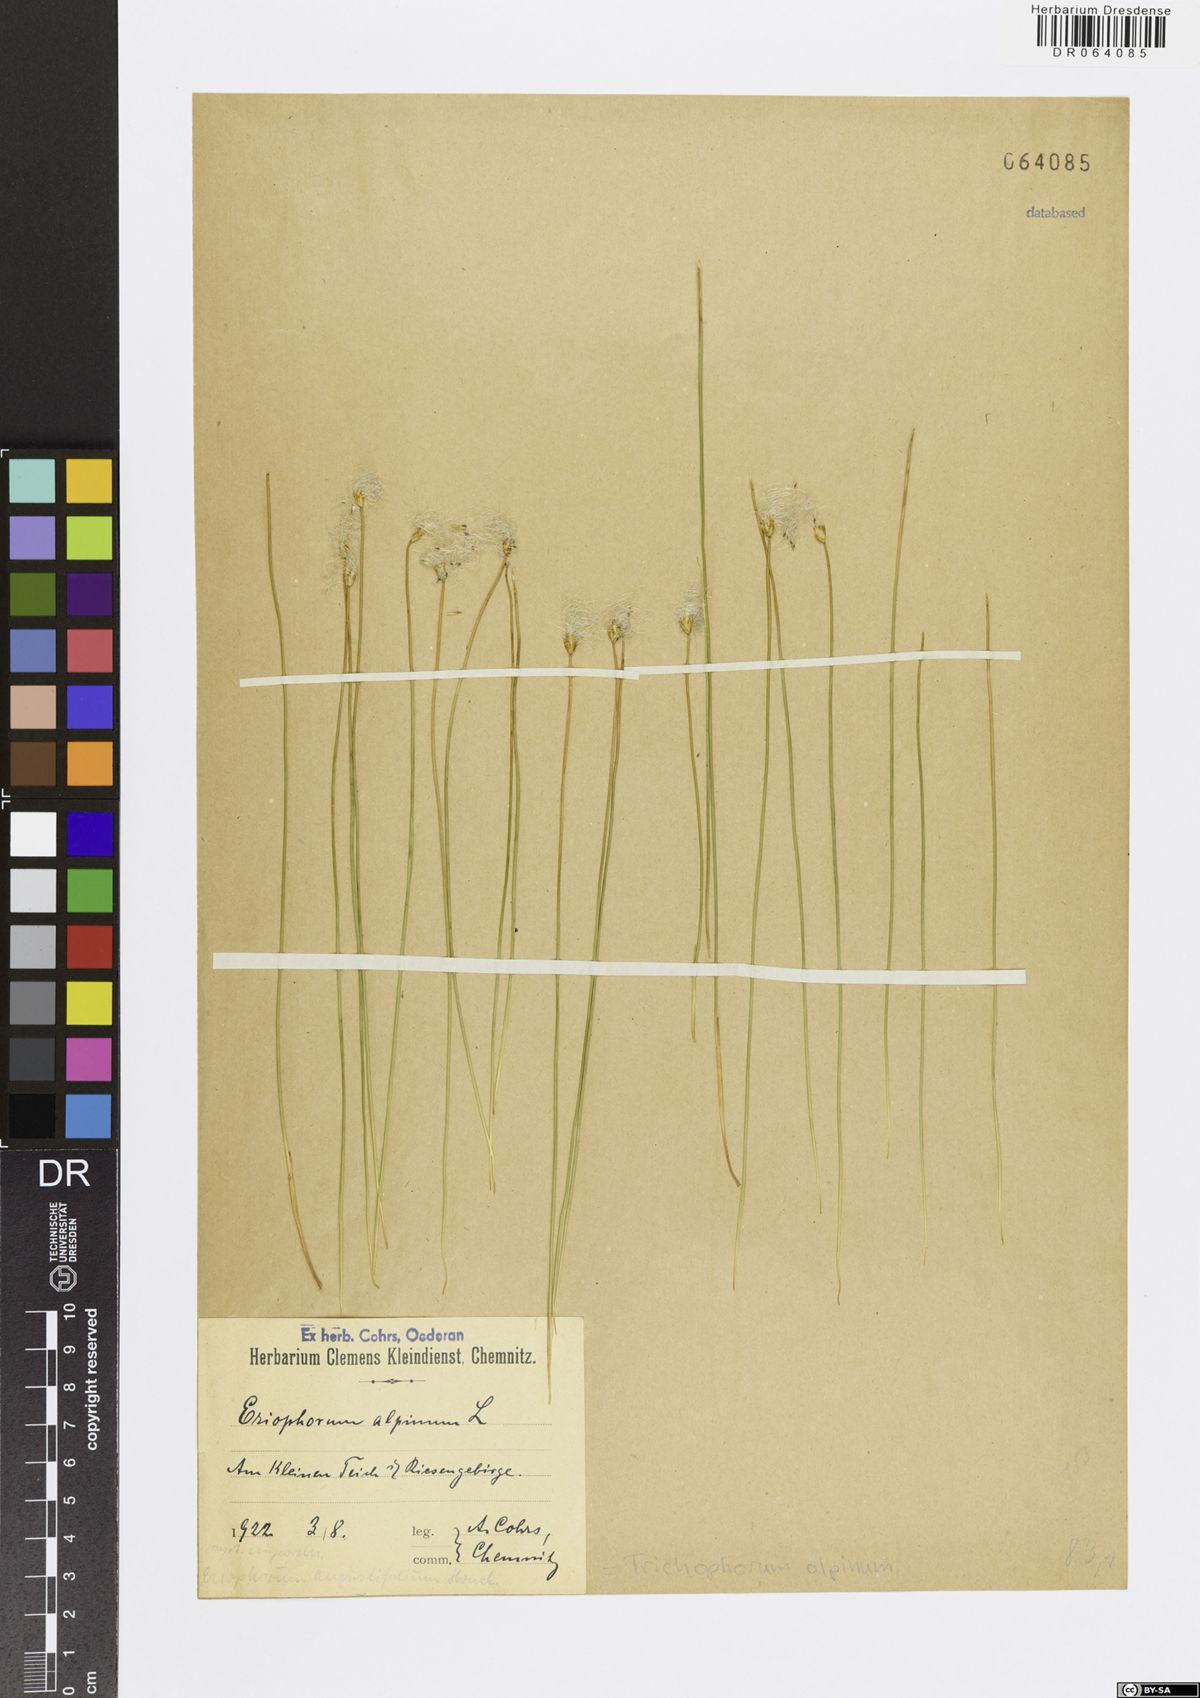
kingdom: Plantae
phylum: Tracheophyta
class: Liliopsida
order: Poales
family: Cyperaceae
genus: Trichophorum
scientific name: Trichophorum alpinum
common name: Alpine bulrush
